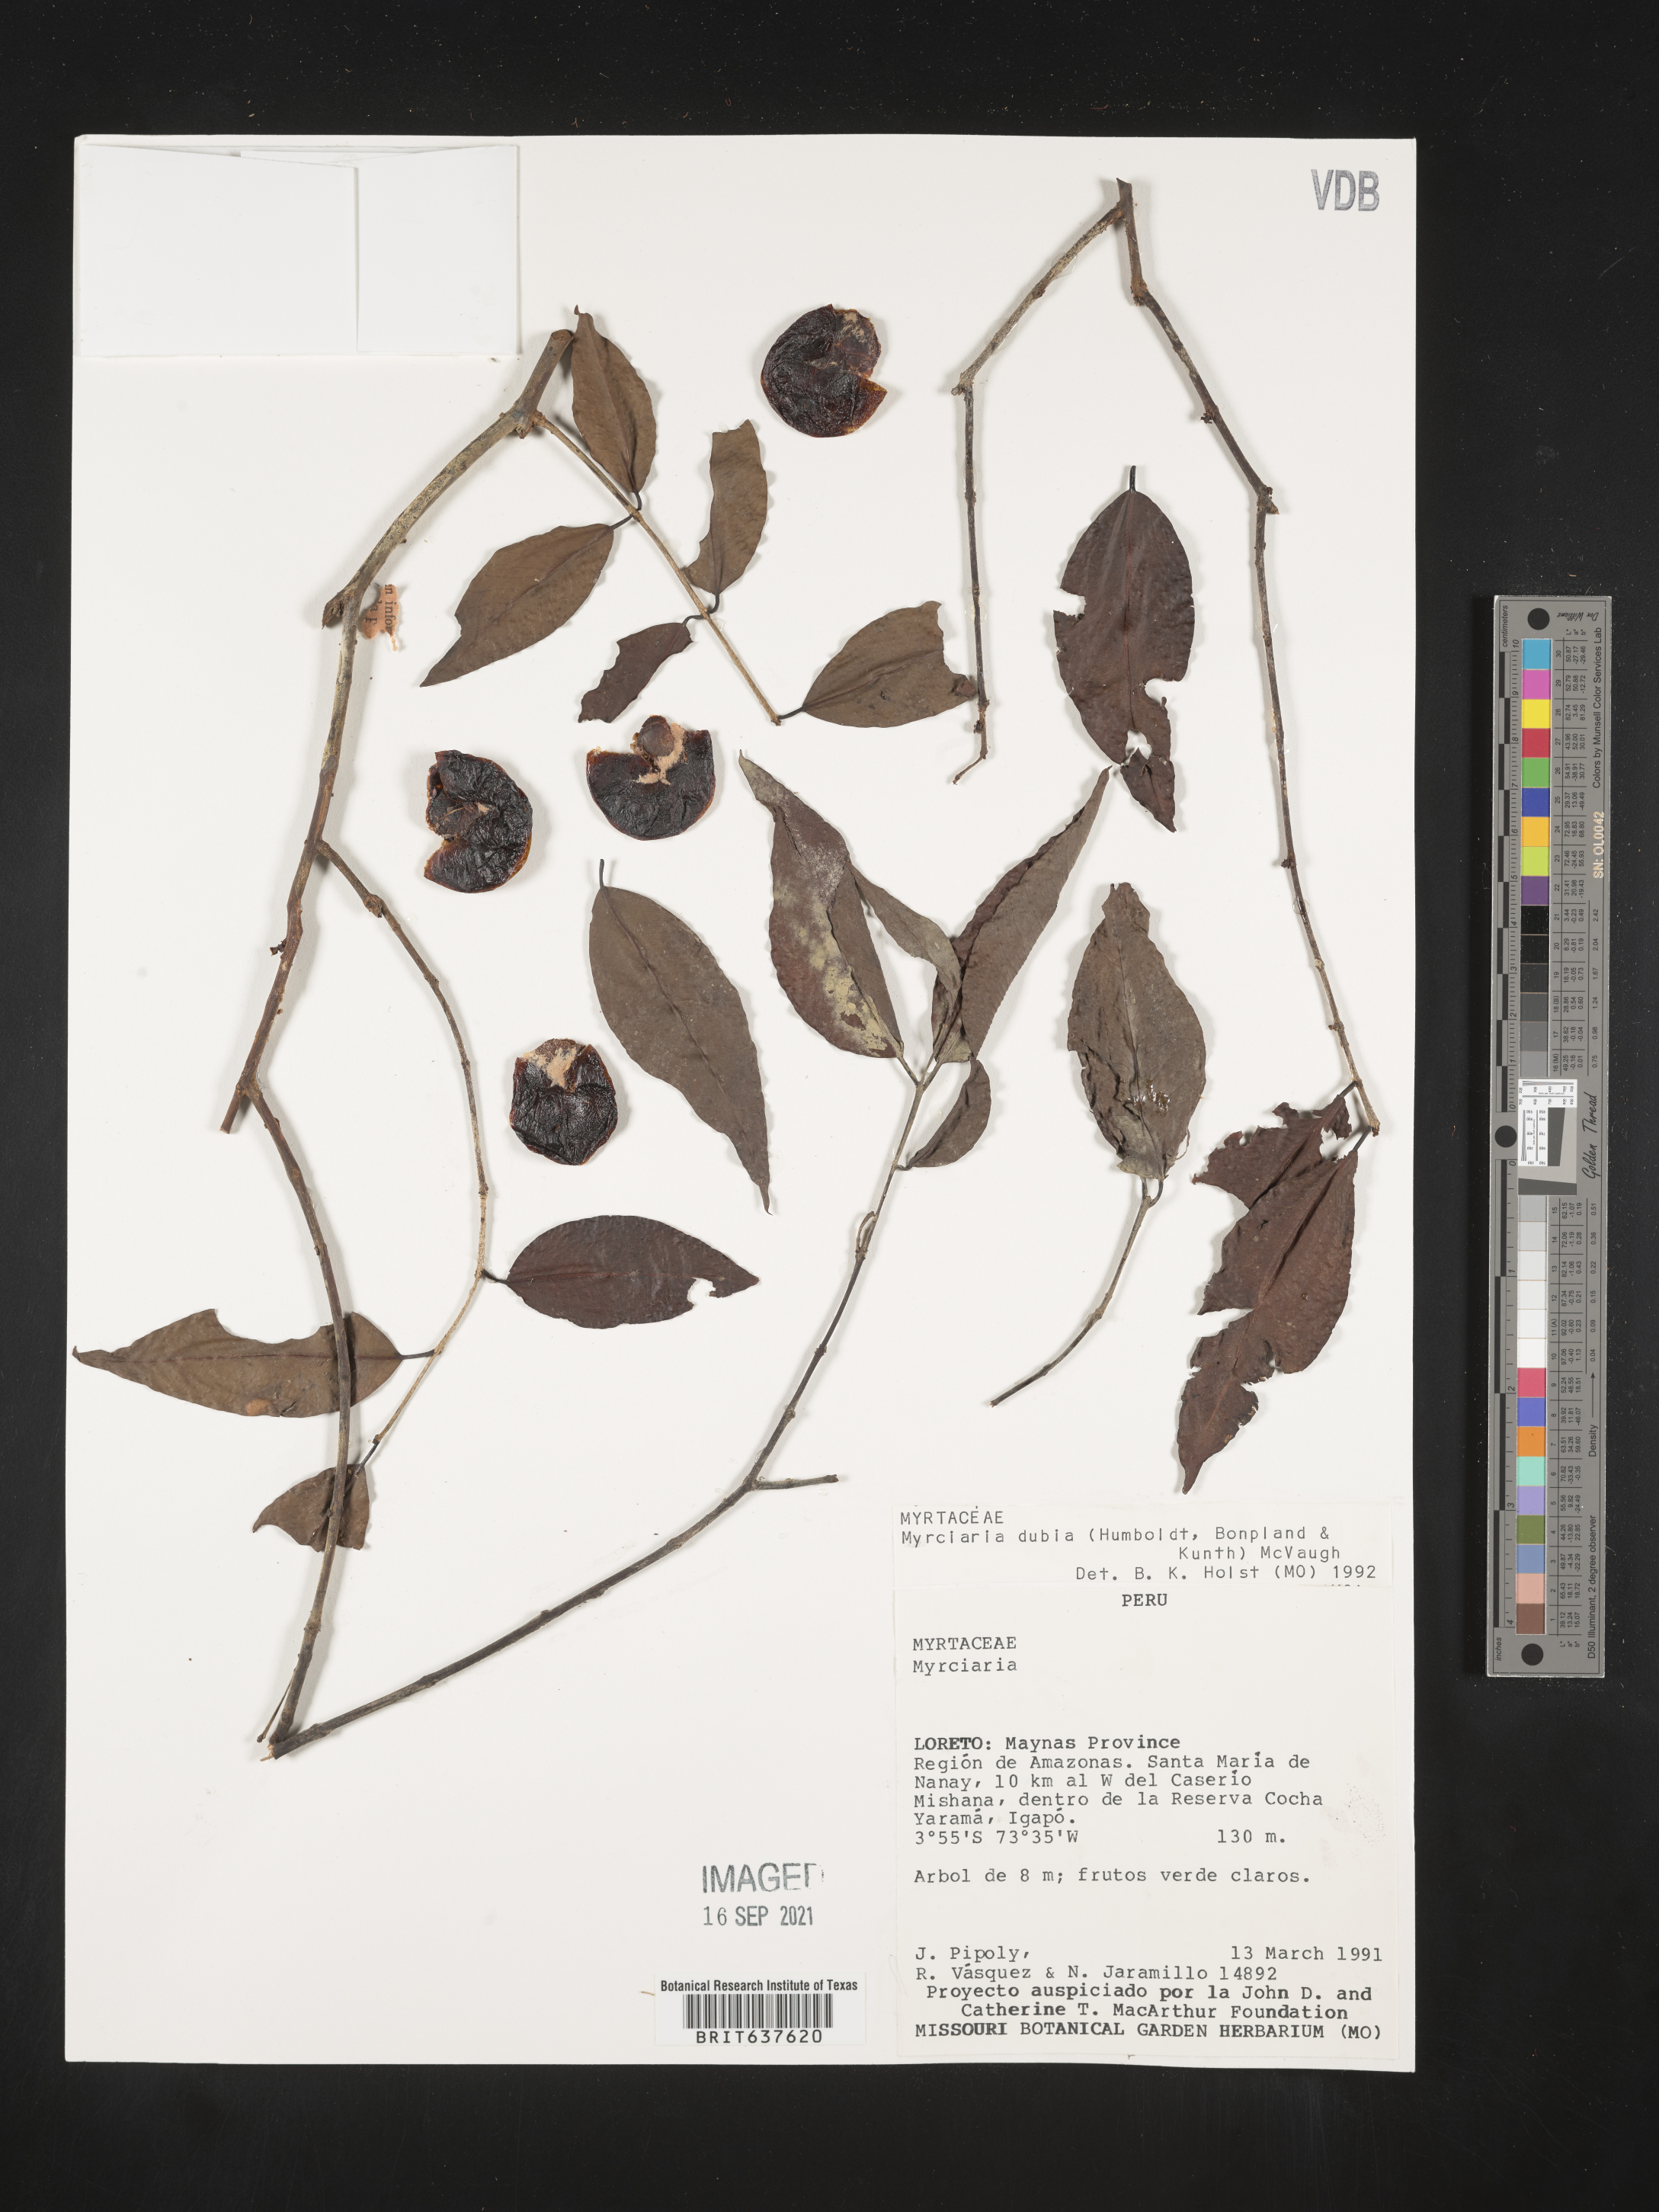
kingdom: Plantae
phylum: Tracheophyta
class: Magnoliopsida
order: Myrtales
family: Myrtaceae
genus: Myrciaria
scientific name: Myrciaria
